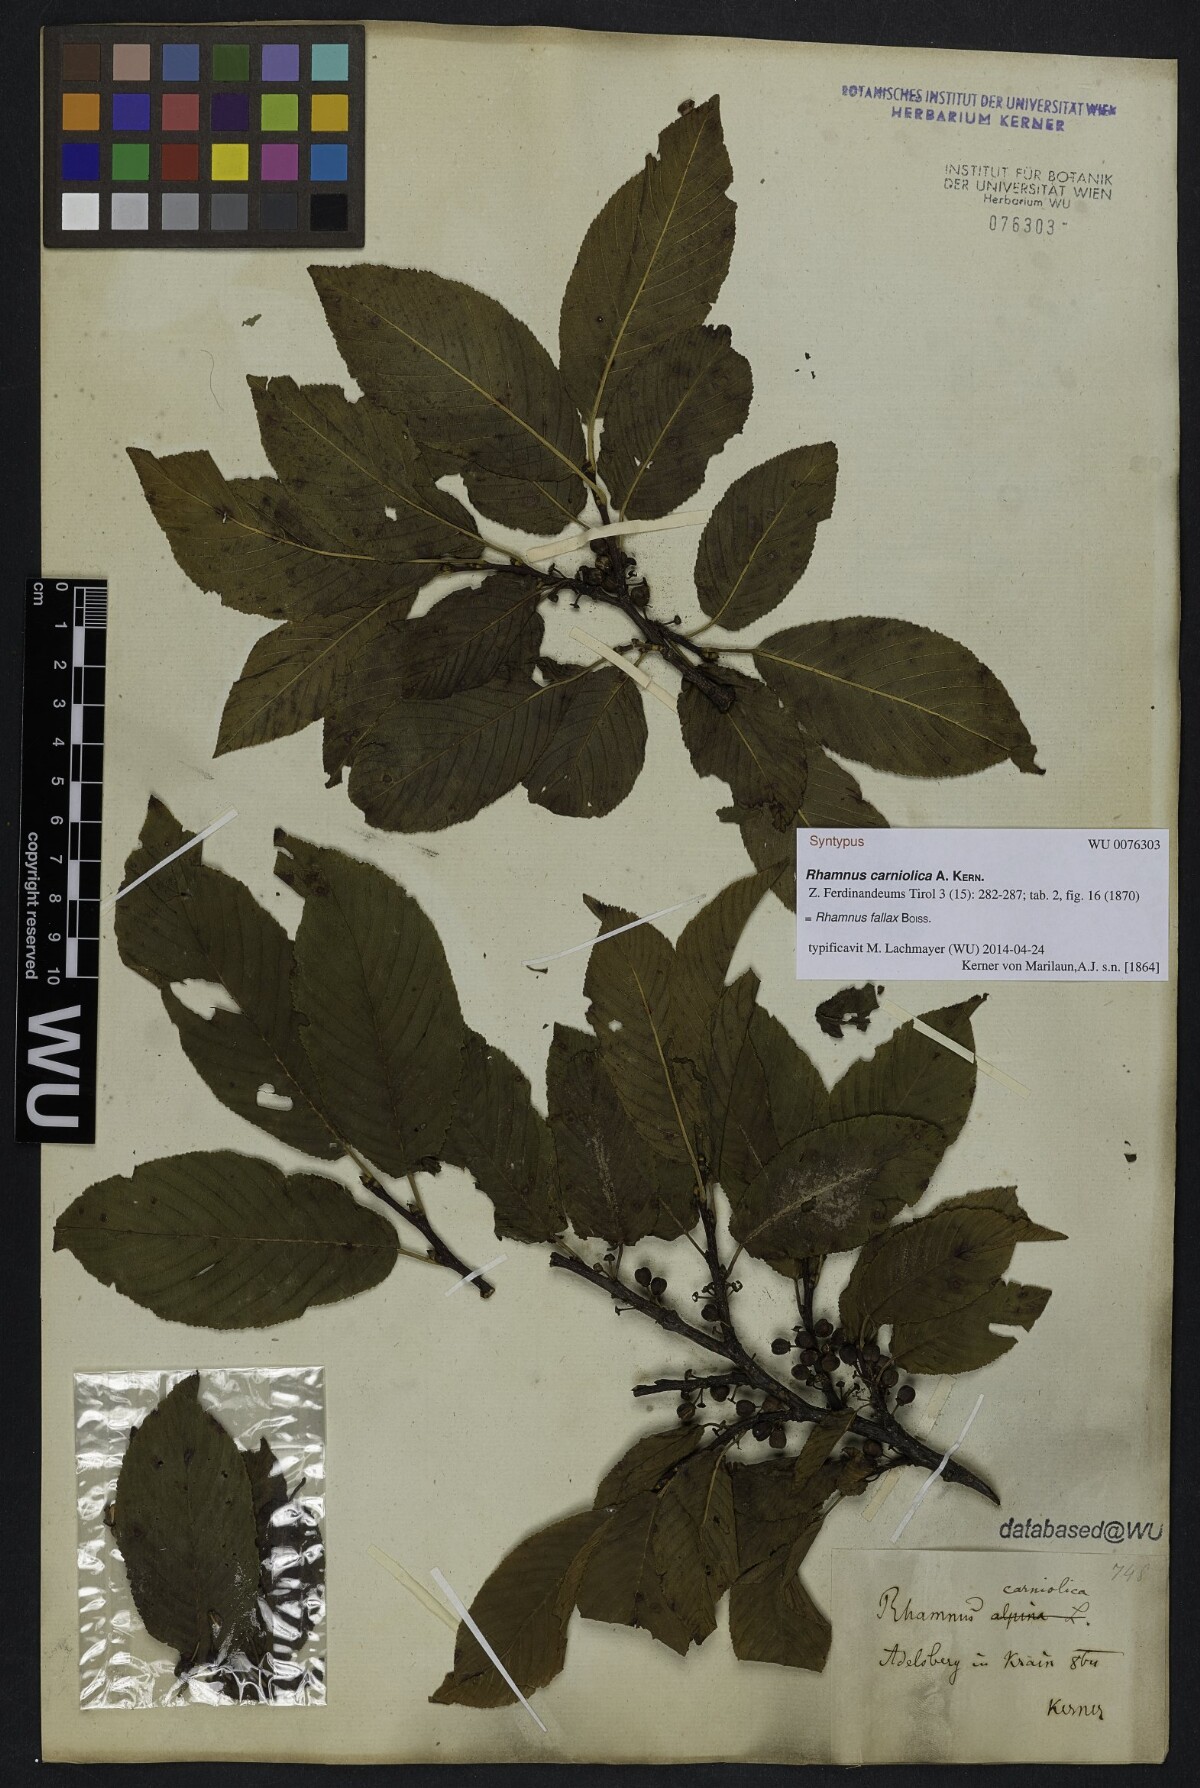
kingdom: Plantae
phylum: Tracheophyta
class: Magnoliopsida
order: Rosales
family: Rhamnaceae
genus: Rhamnus
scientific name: Rhamnus saxatilis
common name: Rock buckthorn
